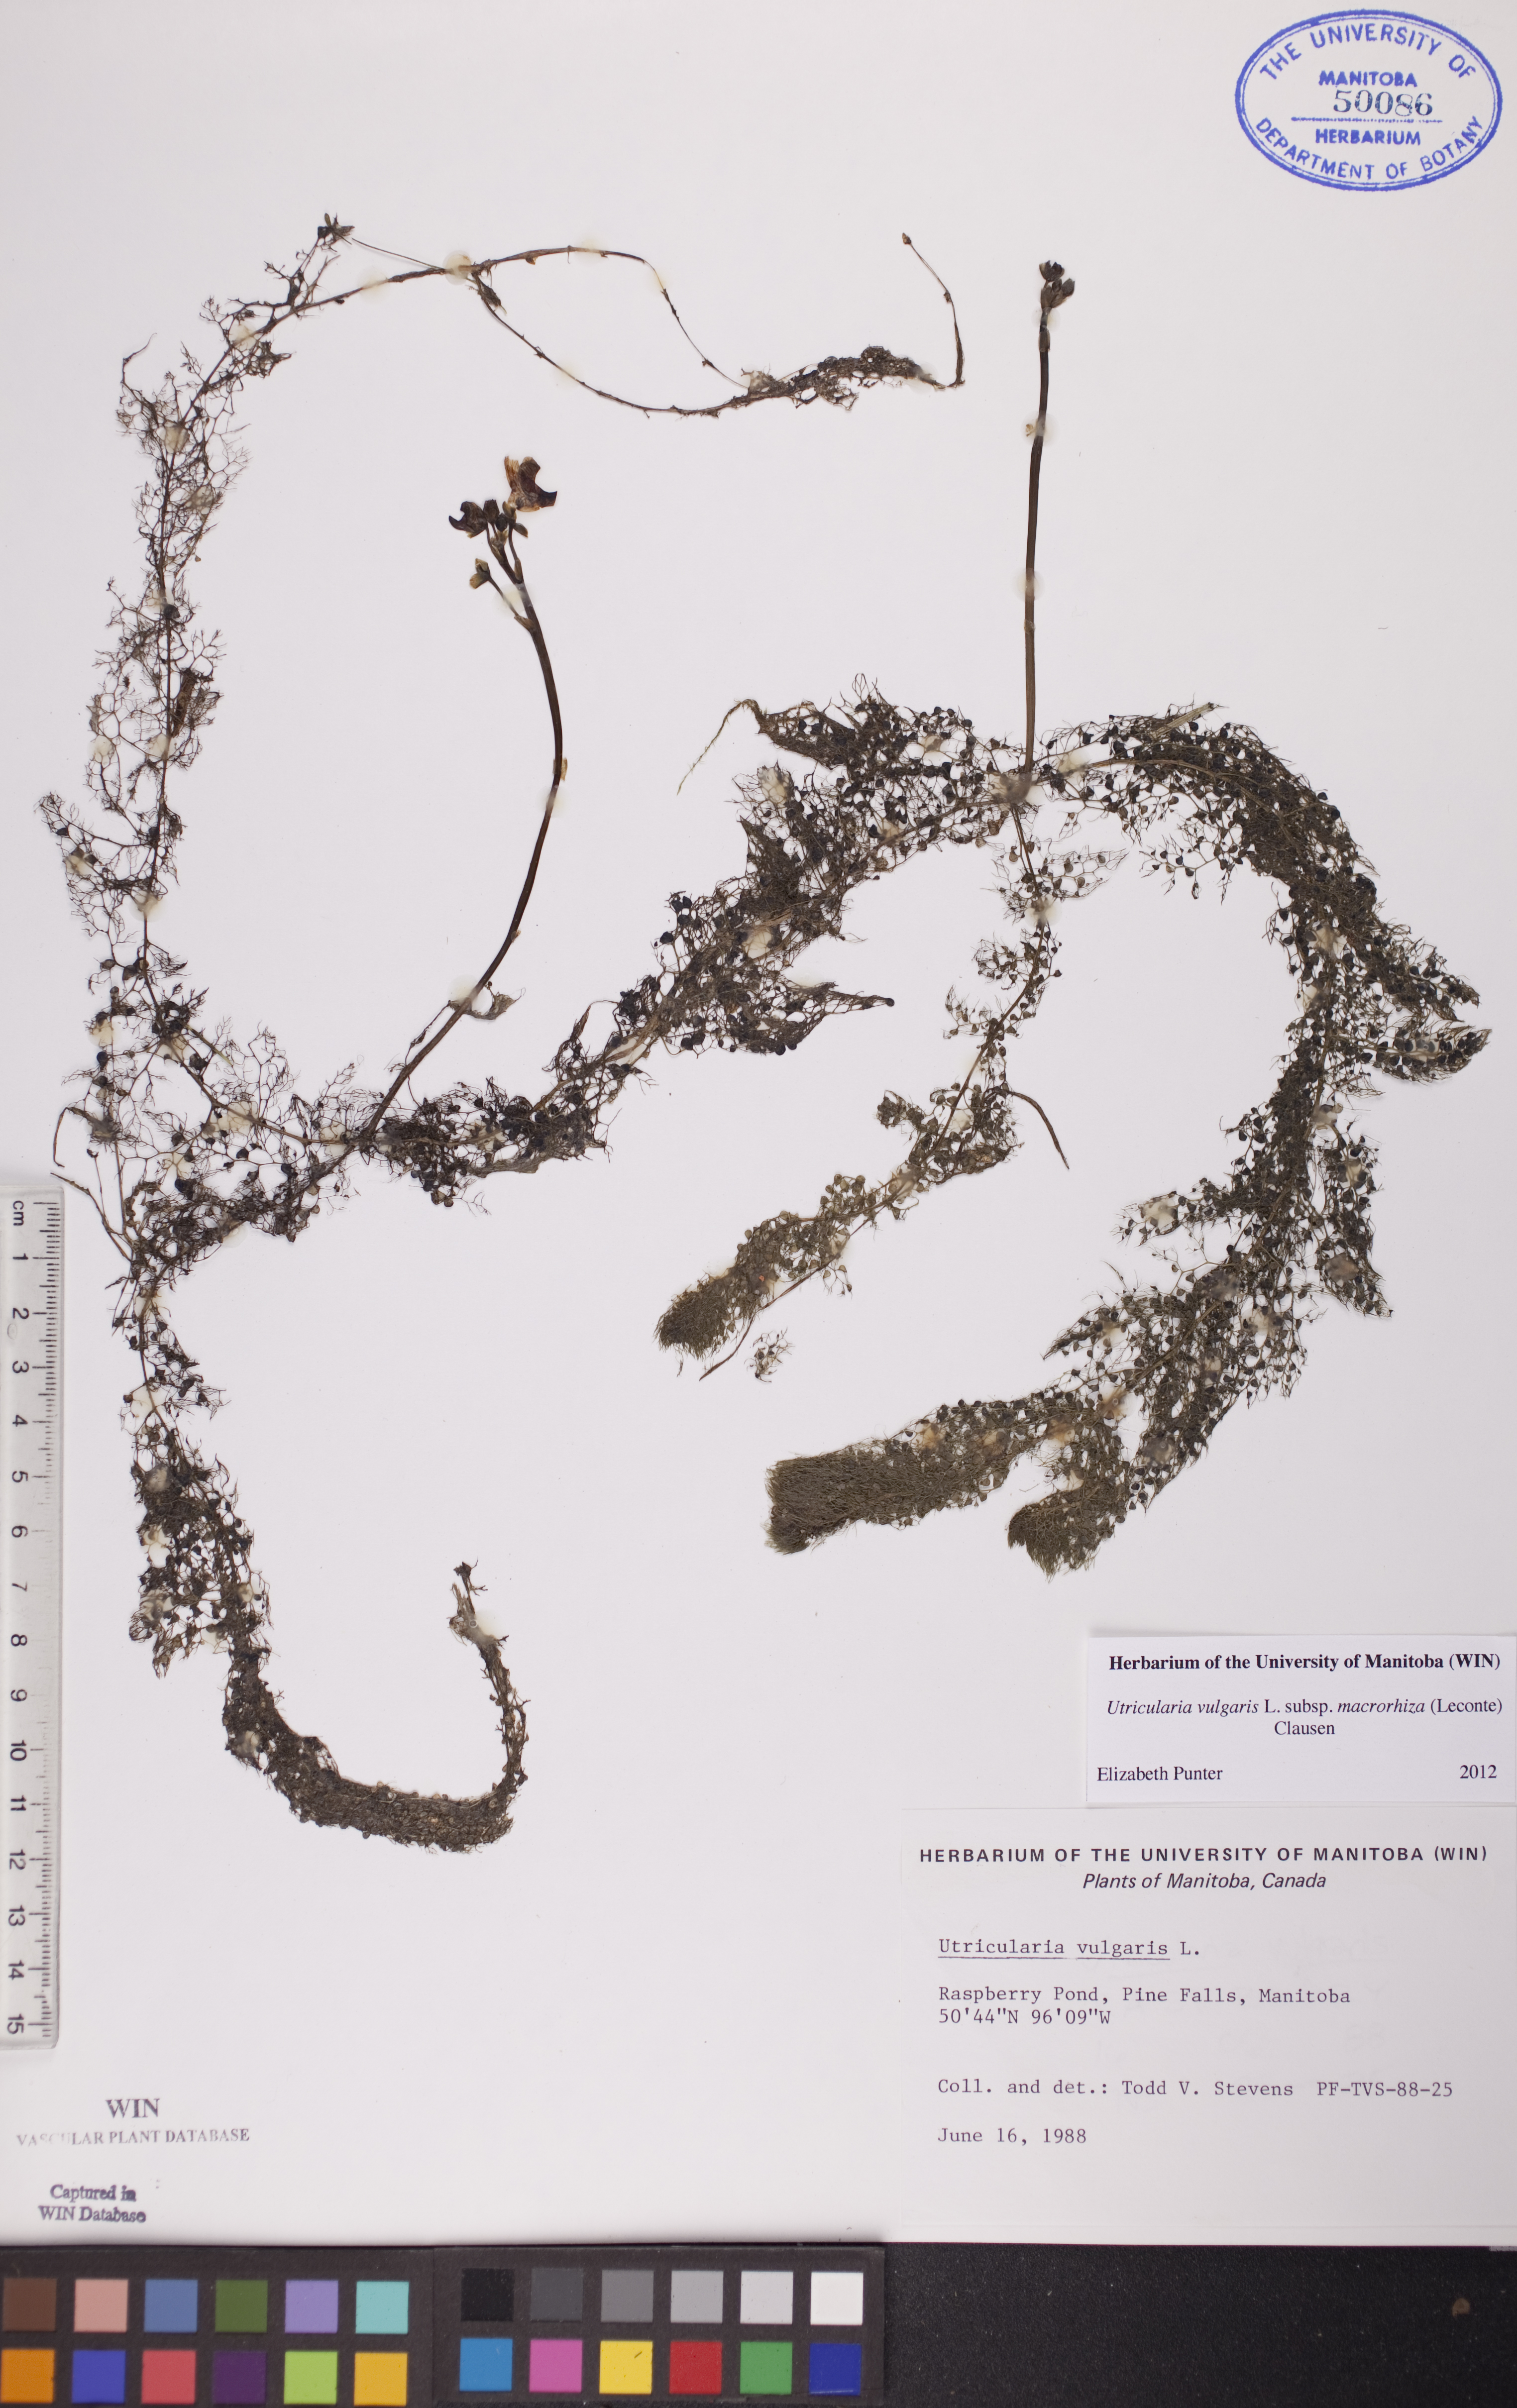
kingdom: Plantae
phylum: Tracheophyta
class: Magnoliopsida
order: Lamiales
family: Lentibulariaceae
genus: Utricularia
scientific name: Utricularia macrorhiza
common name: Common bladderwort
